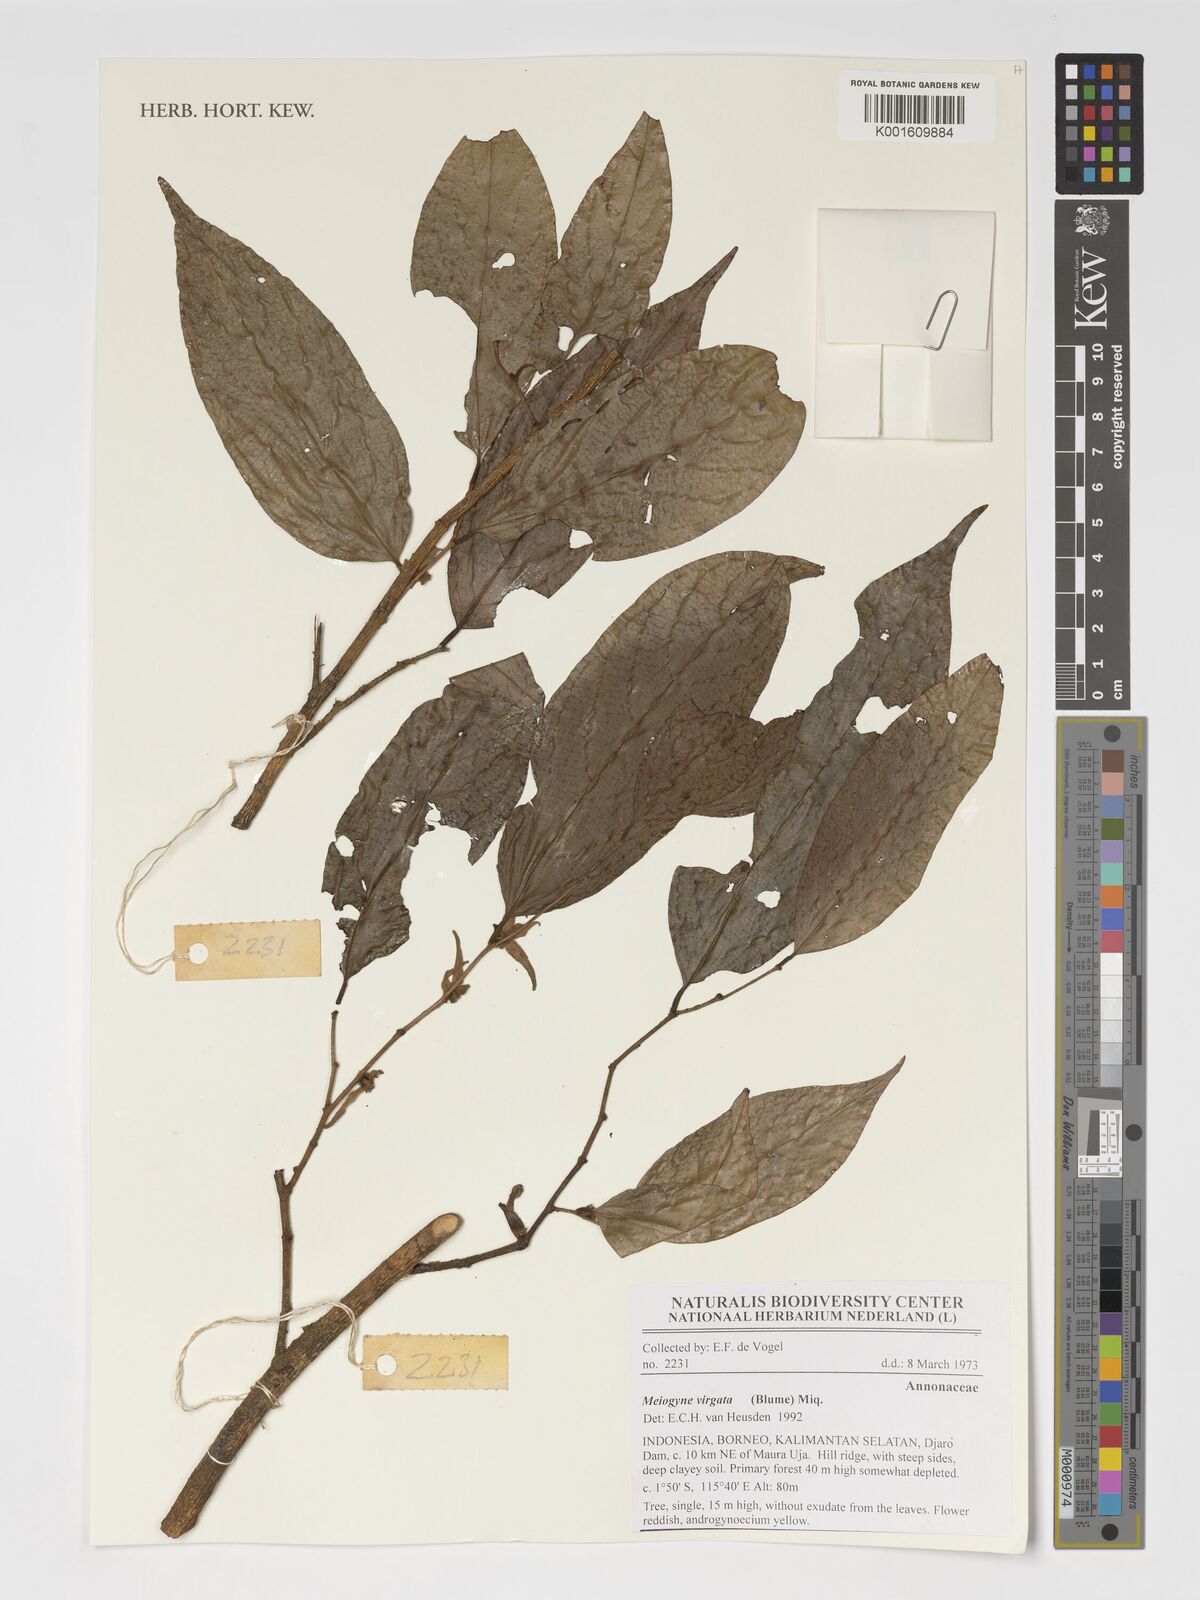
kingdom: Plantae
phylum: Tracheophyta
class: Magnoliopsida
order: Magnoliales
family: Annonaceae
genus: Meiogyne
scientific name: Meiogyne virgata
